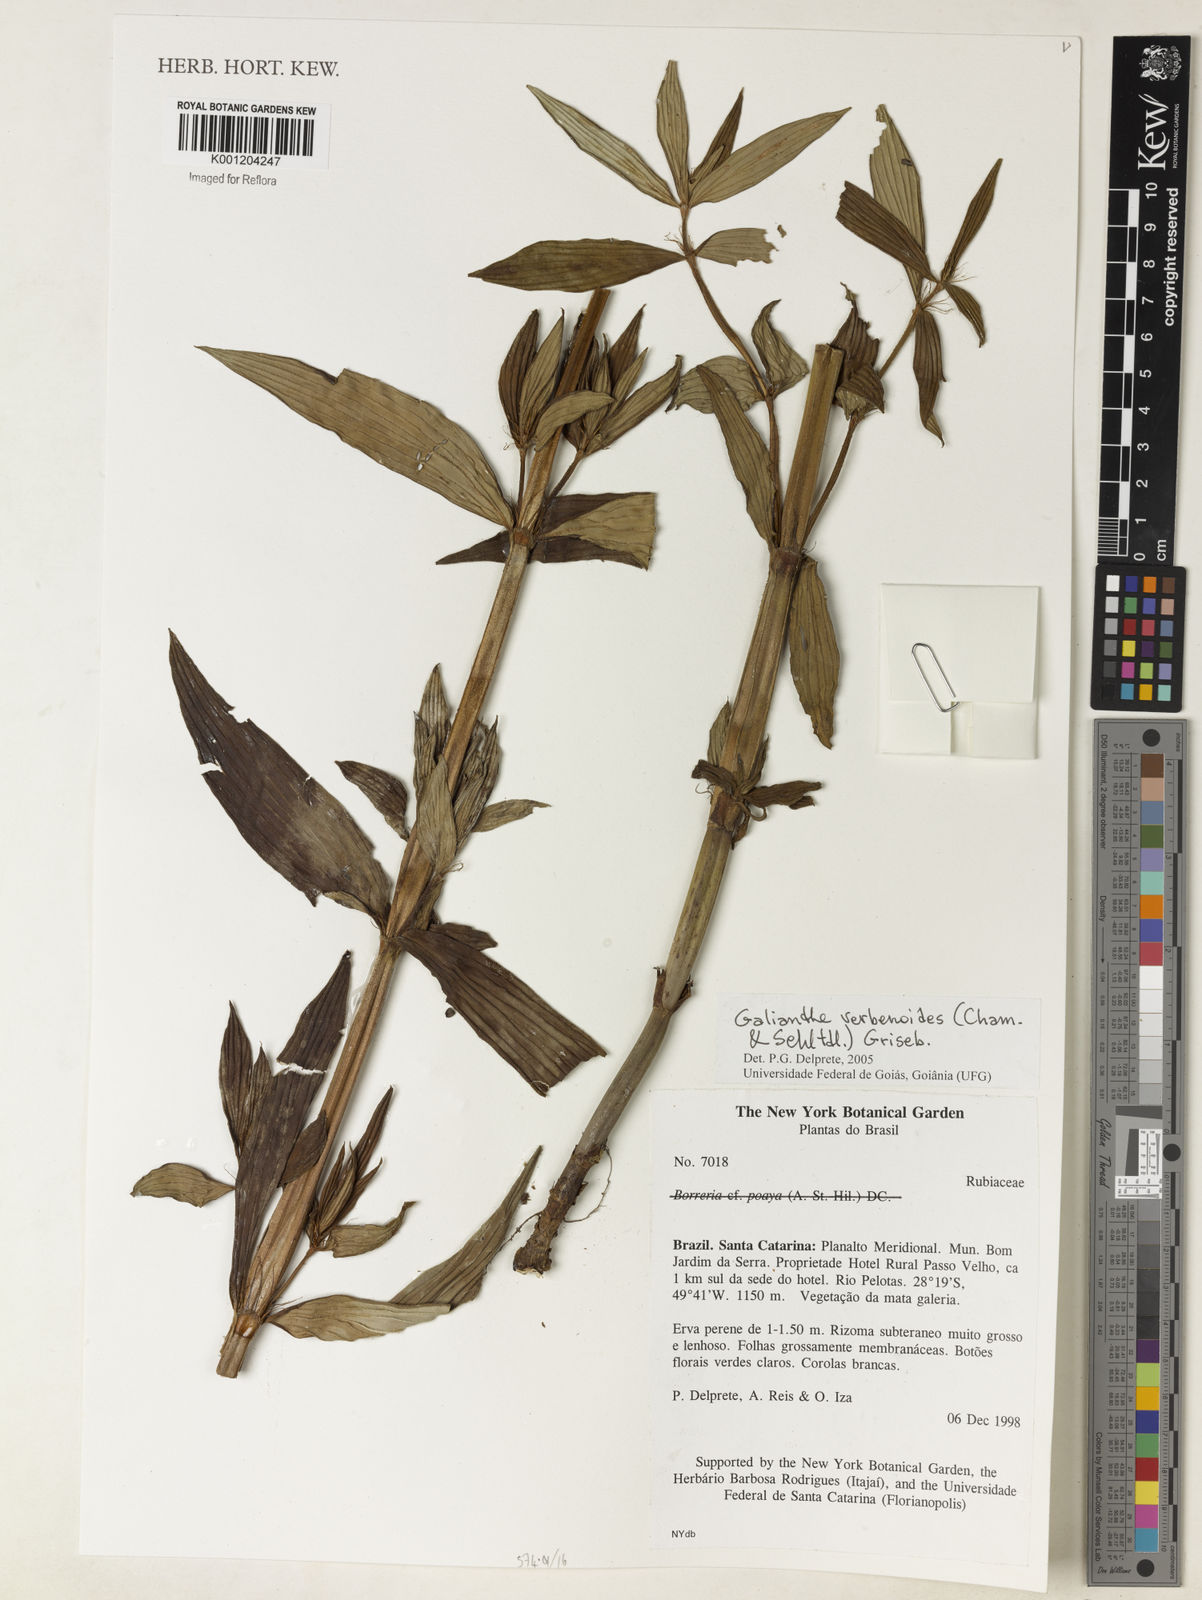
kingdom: Plantae
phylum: Tracheophyta
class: Magnoliopsida
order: Gentianales
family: Rubiaceae
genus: Galianthe
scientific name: Galianthe valerianoides
